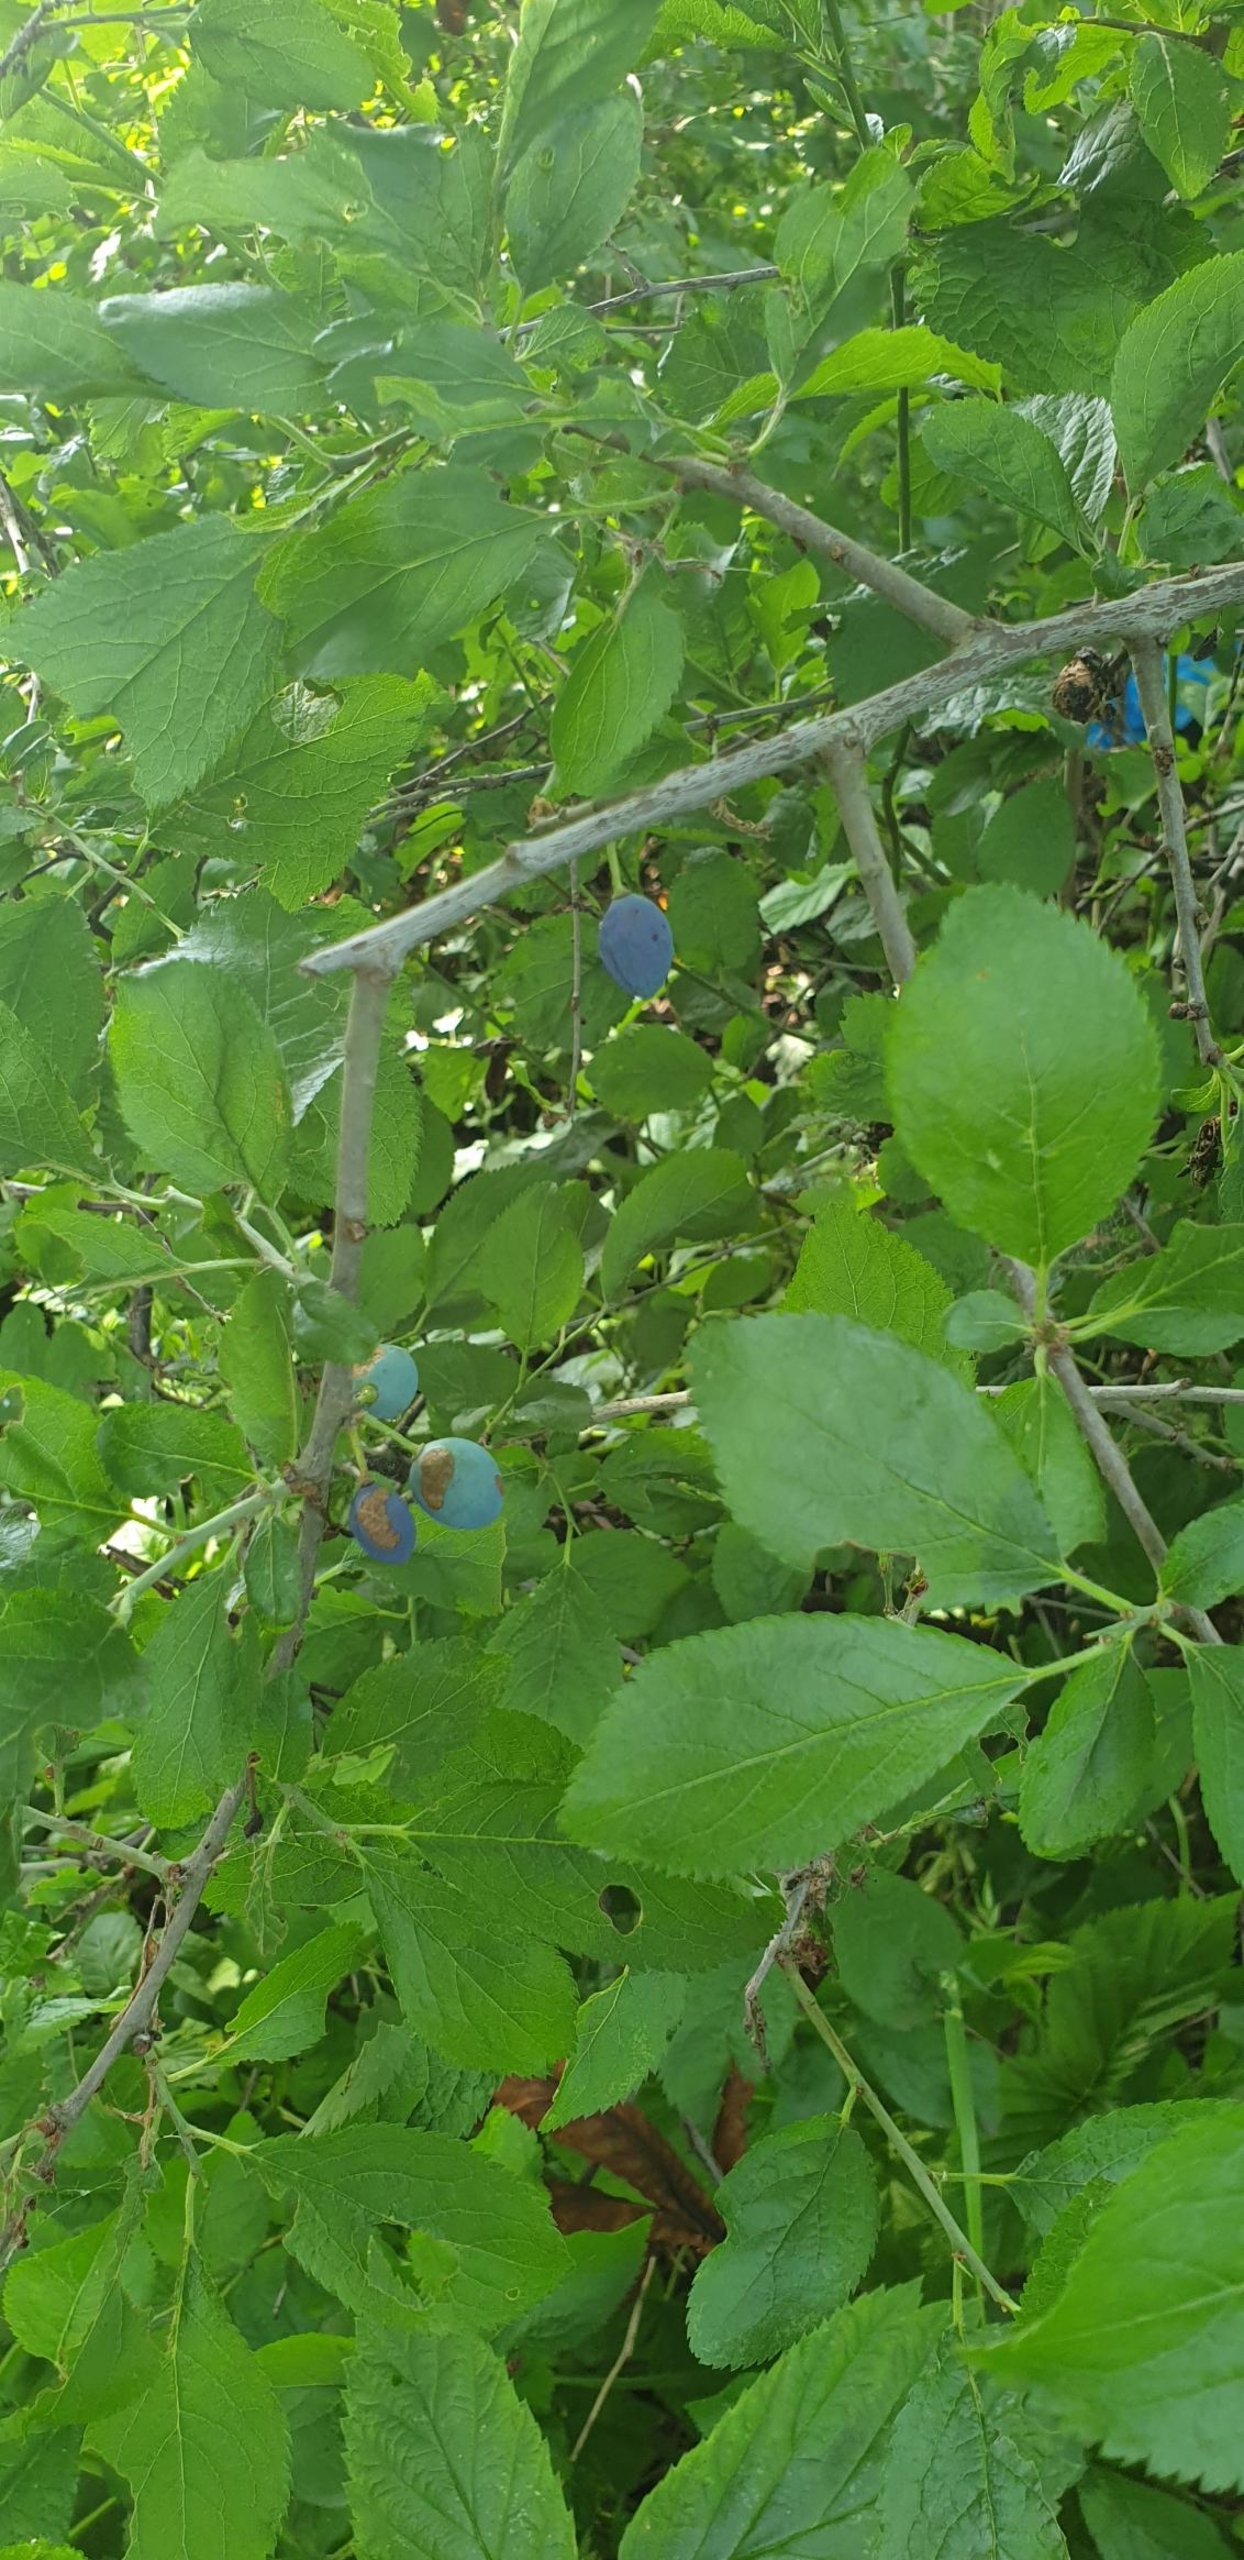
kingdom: Plantae
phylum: Tracheophyta
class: Magnoliopsida
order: Rosales
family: Rosaceae
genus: Prunus
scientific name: Prunus spinosa
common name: Slåen
